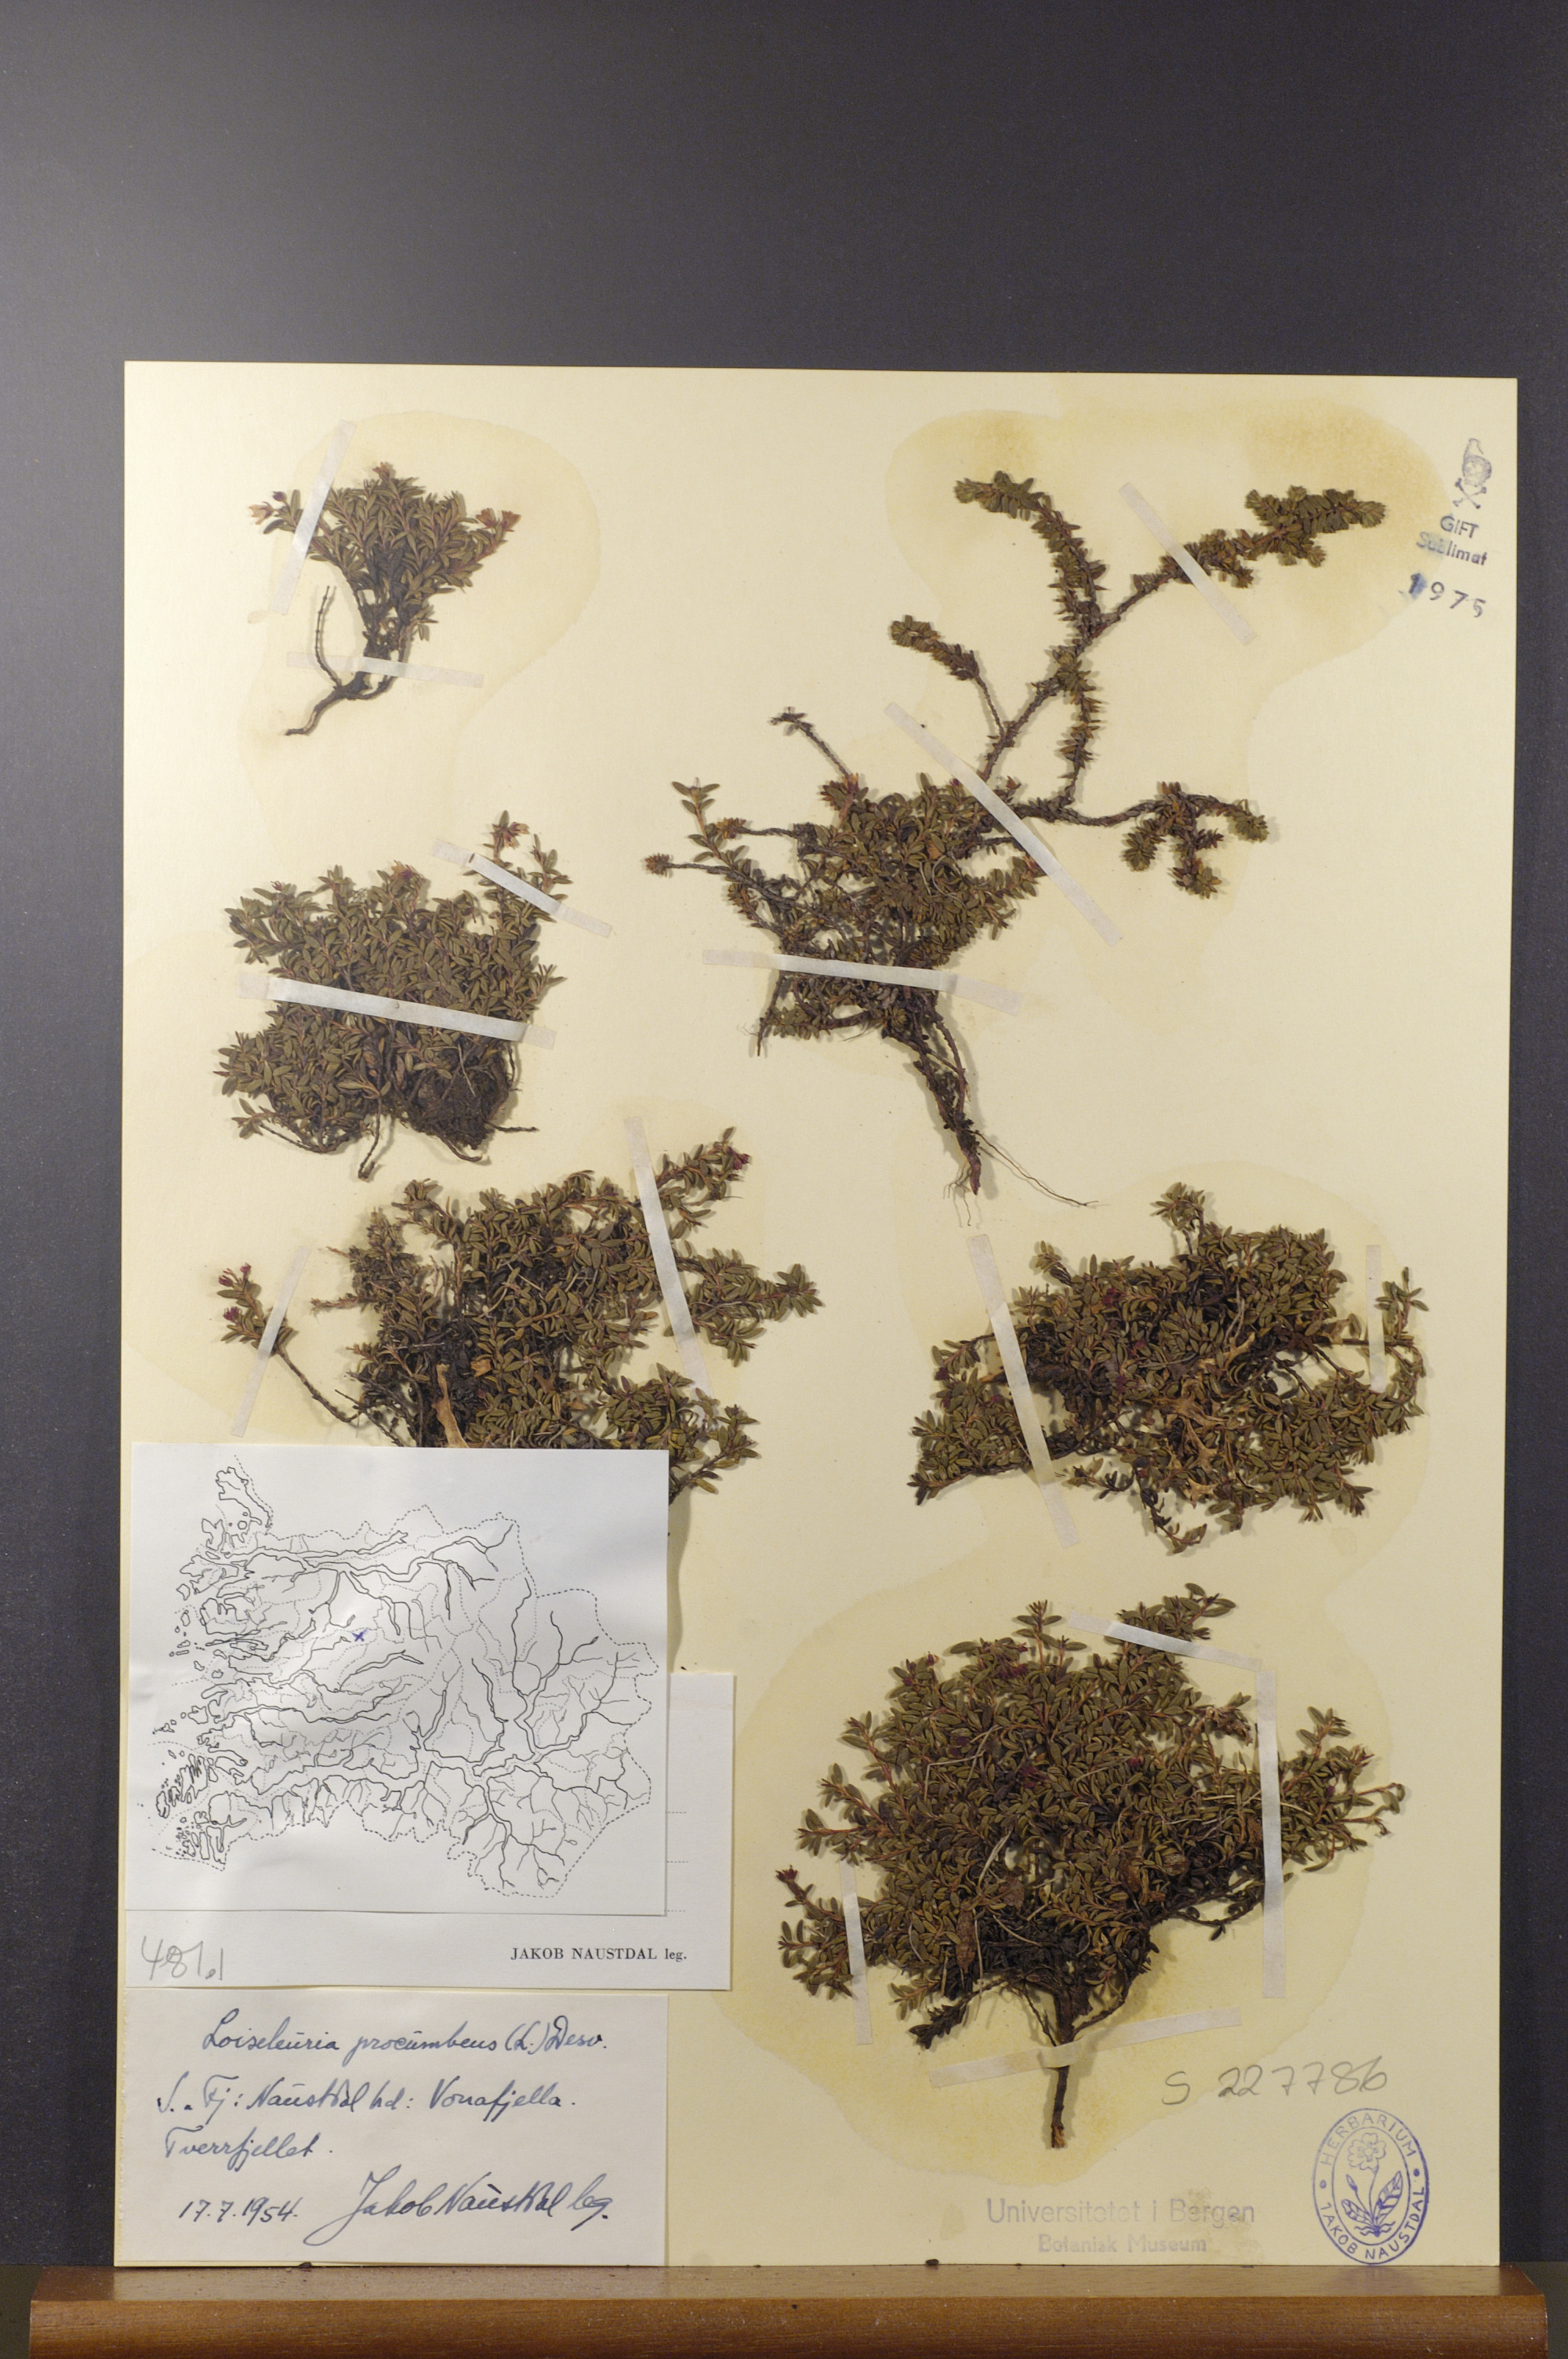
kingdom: Plantae
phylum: Tracheophyta
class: Magnoliopsida
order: Ericales
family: Ericaceae
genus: Kalmia
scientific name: Kalmia procumbens
